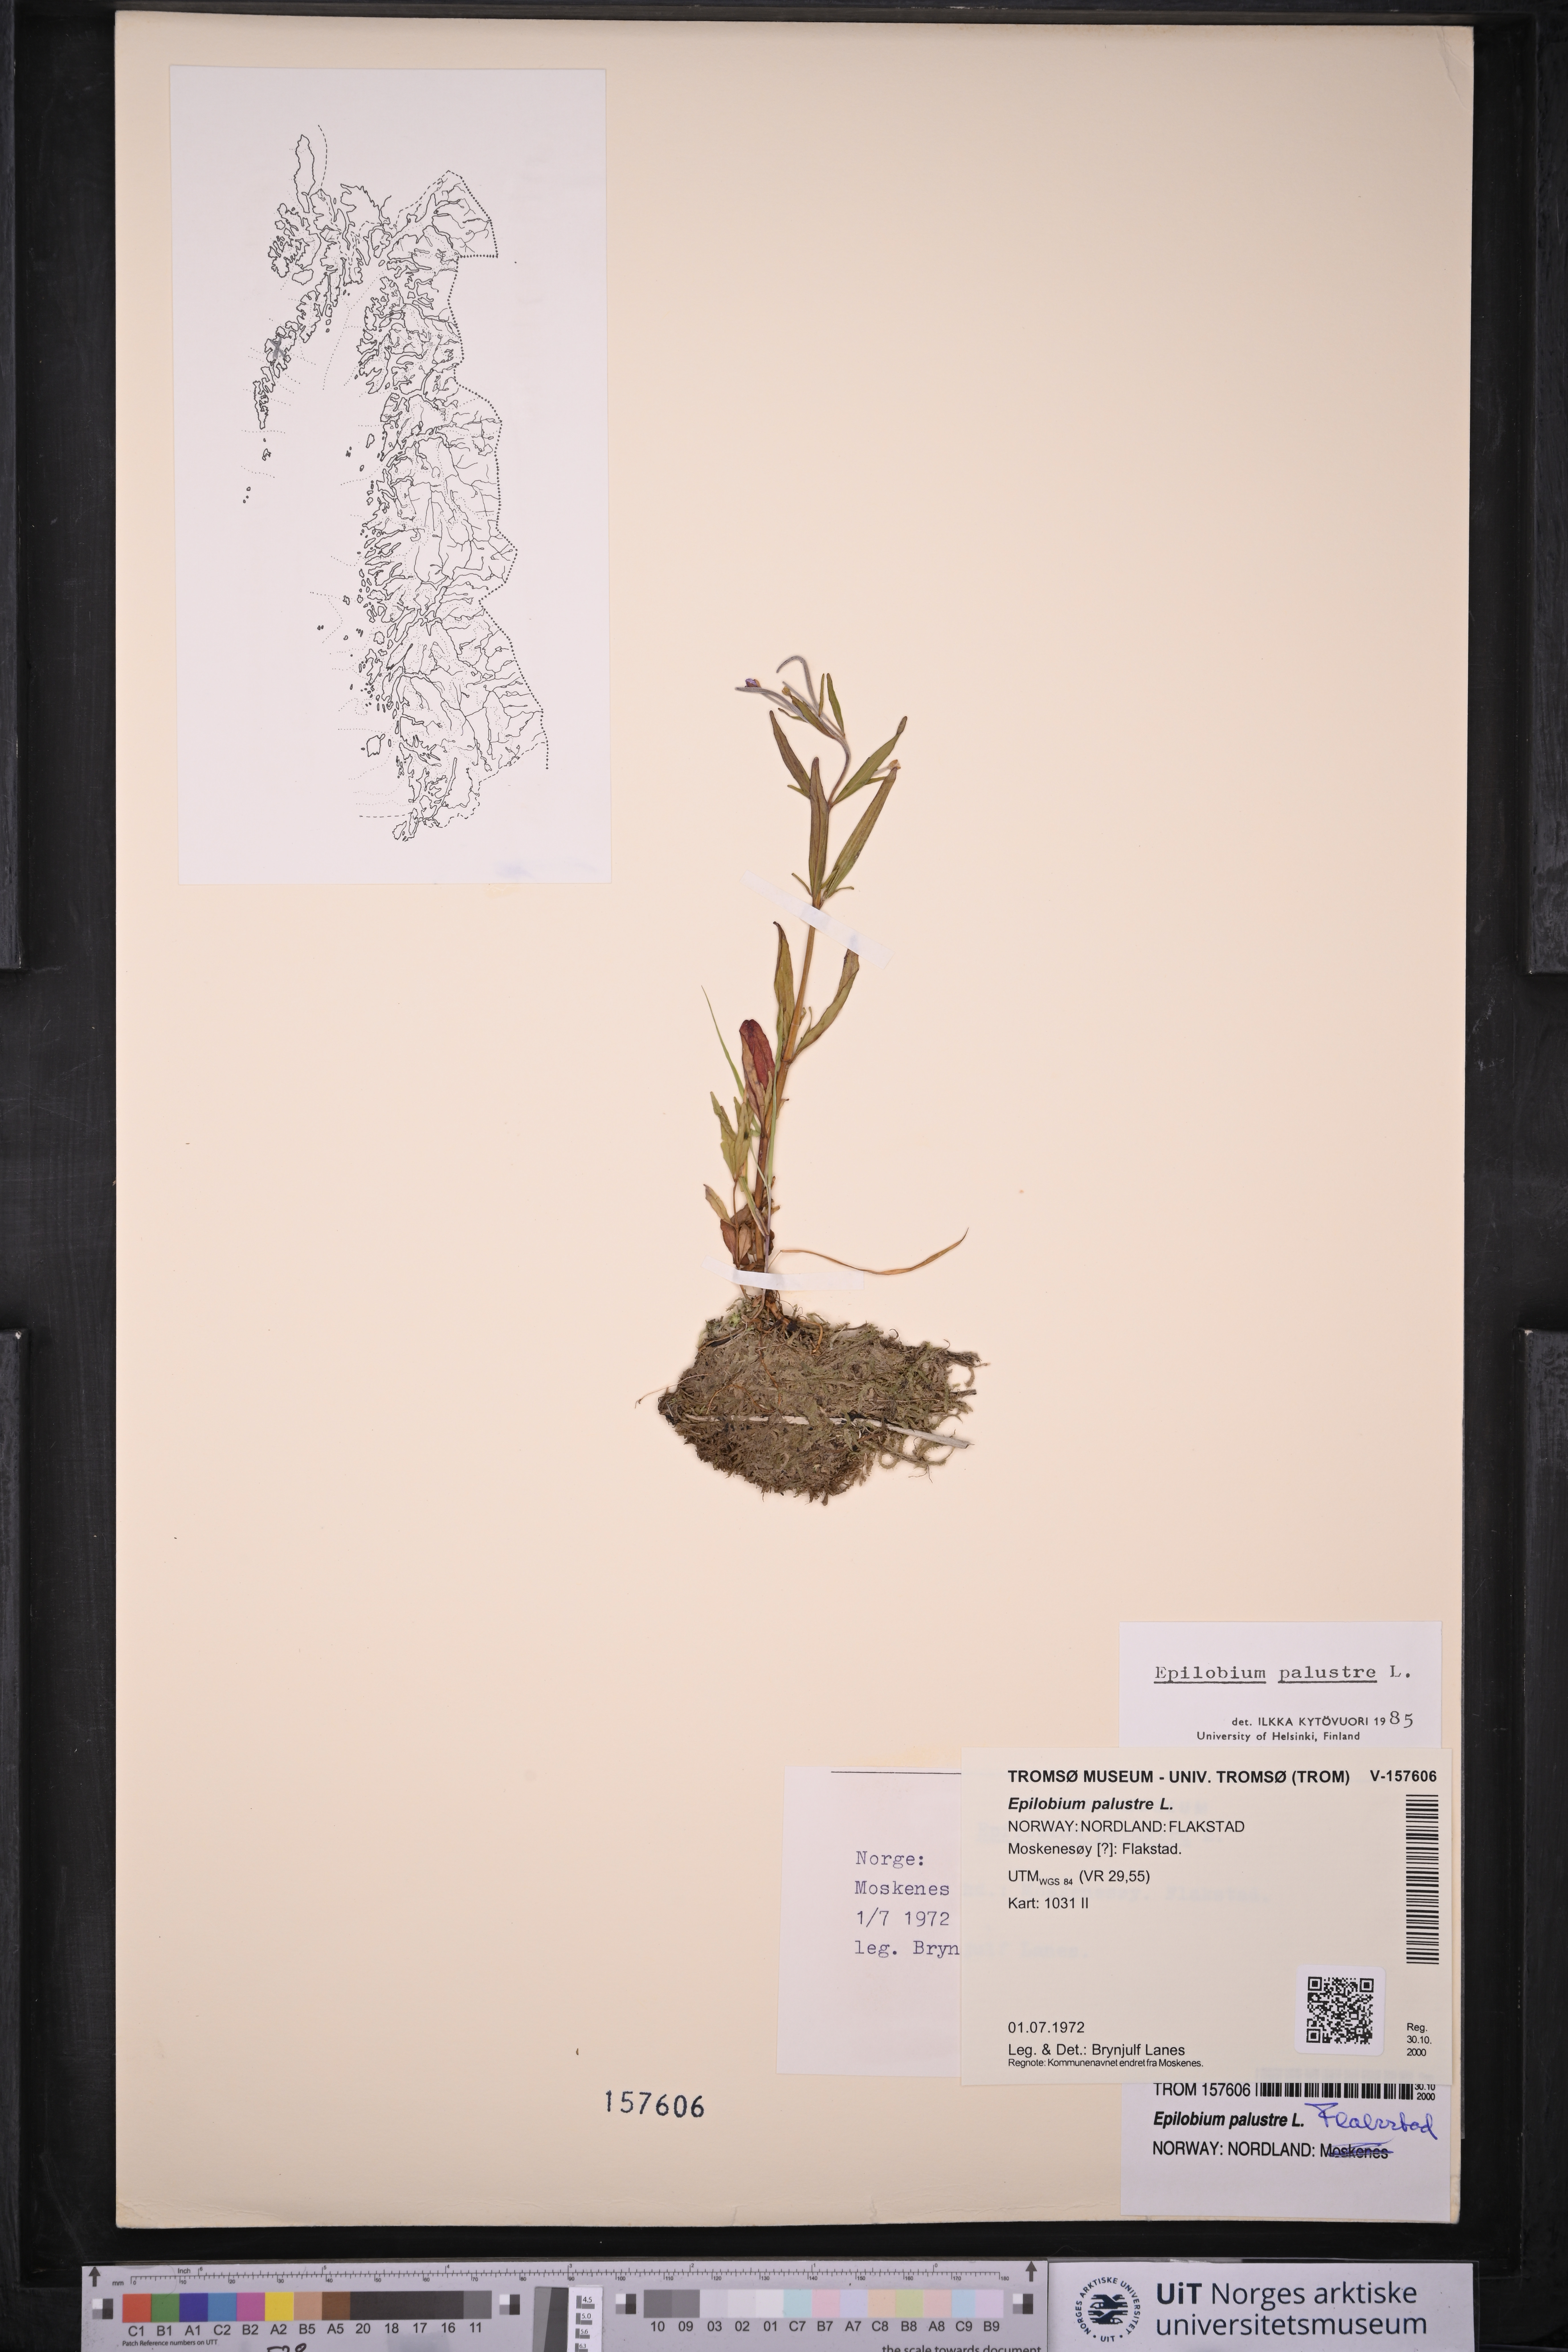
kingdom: Plantae
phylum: Tracheophyta
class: Magnoliopsida
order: Myrtales
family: Onagraceae
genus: Epilobium
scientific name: Epilobium palustre
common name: Marsh willowherb
